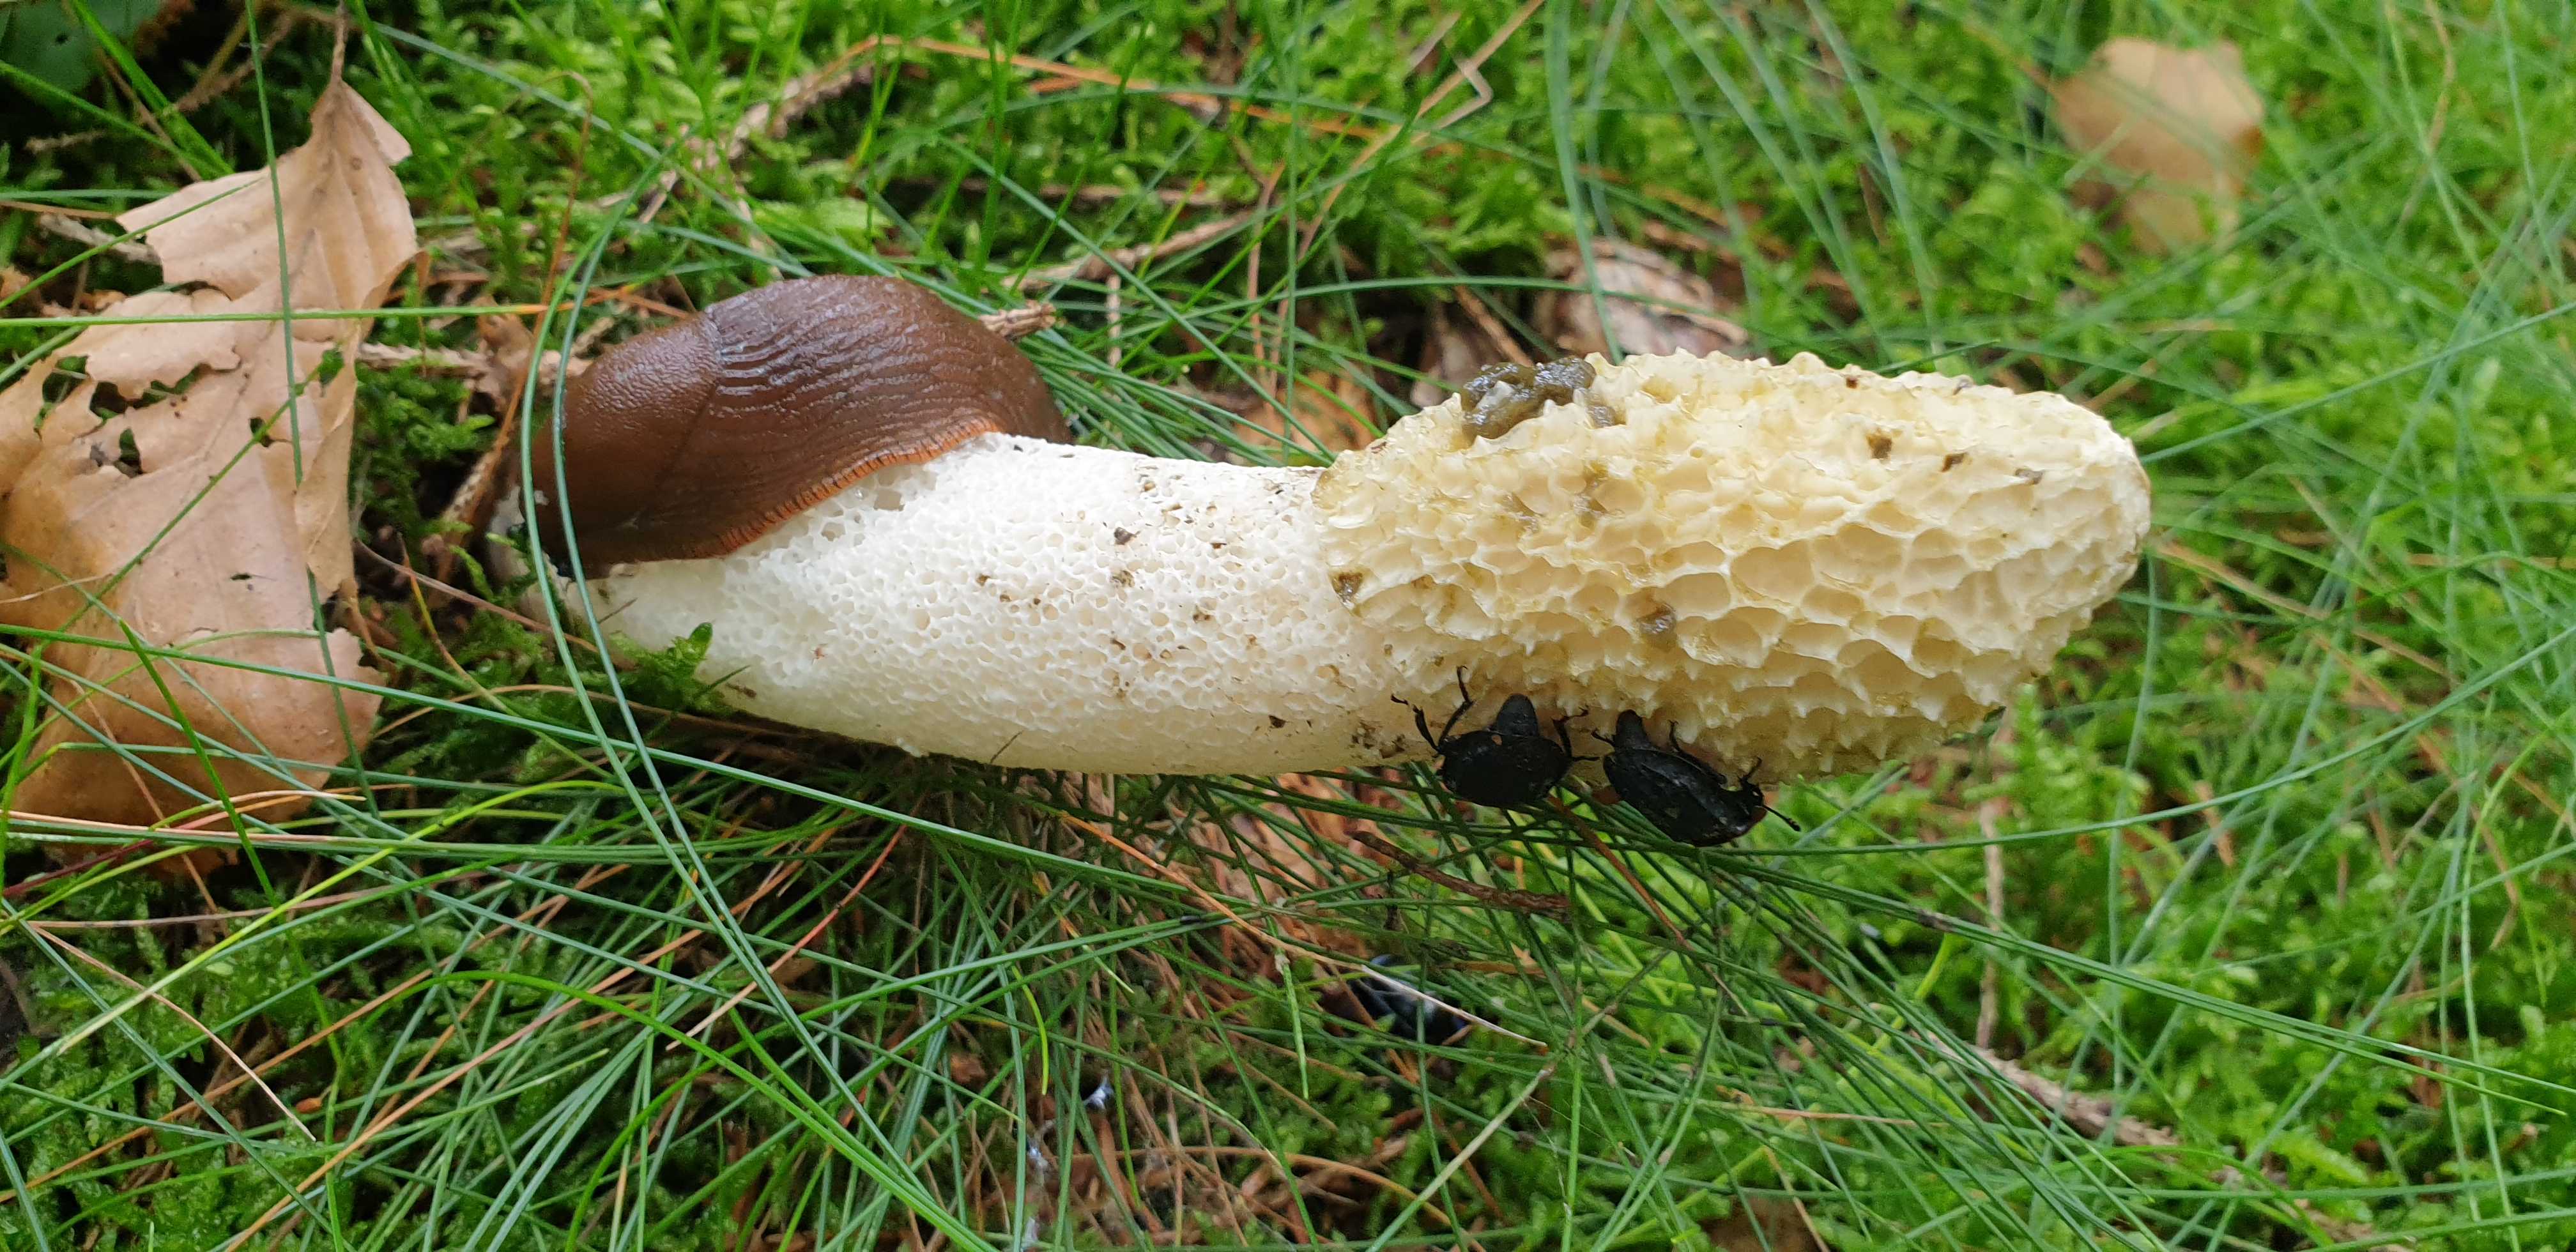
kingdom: Fungi
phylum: Basidiomycota
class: Agaricomycetes
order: Phallales
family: Phallaceae
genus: Phallus
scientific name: Phallus impudicus
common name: almindelig stinksvamp
